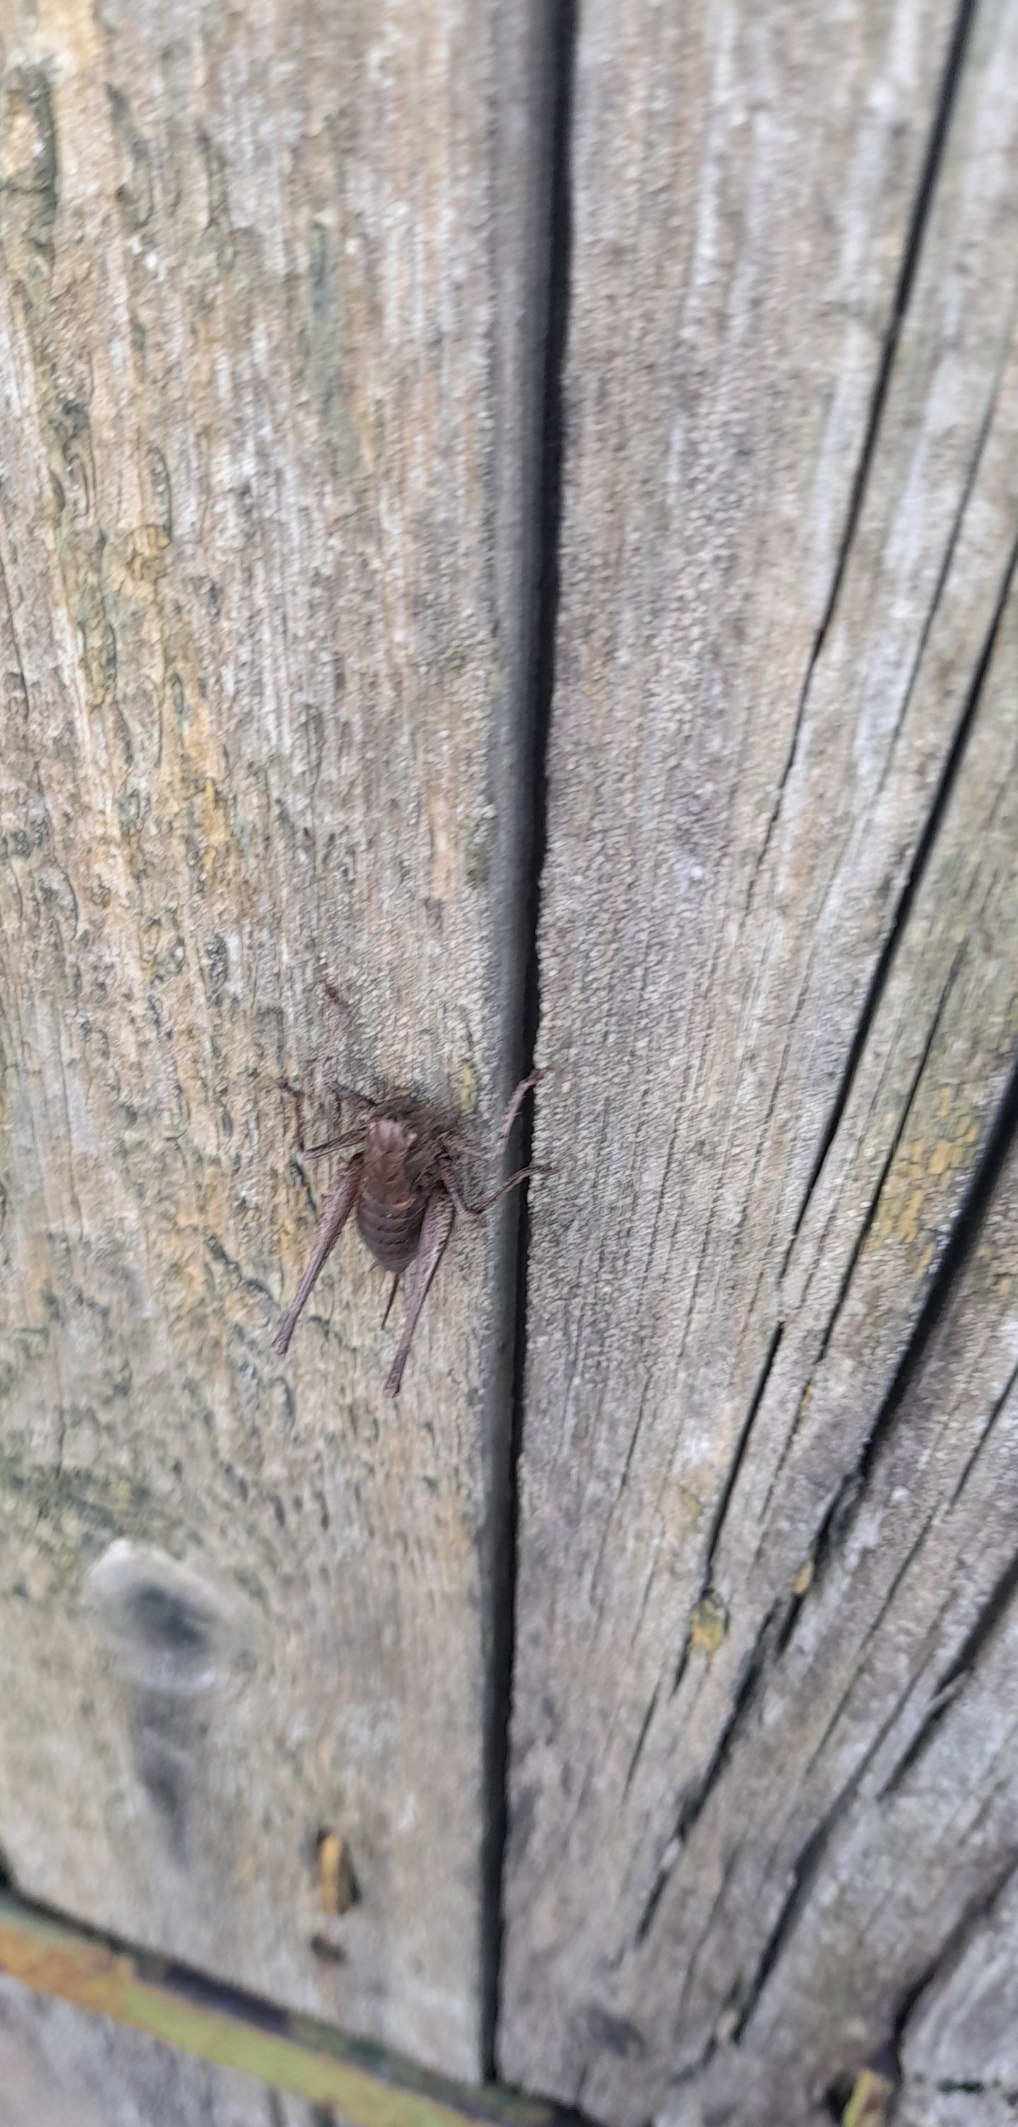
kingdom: Animalia
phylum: Arthropoda
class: Insecta
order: Orthoptera
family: Tettigoniidae
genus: Pholidoptera
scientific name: Pholidoptera griseoaptera
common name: Buskgræshoppe
